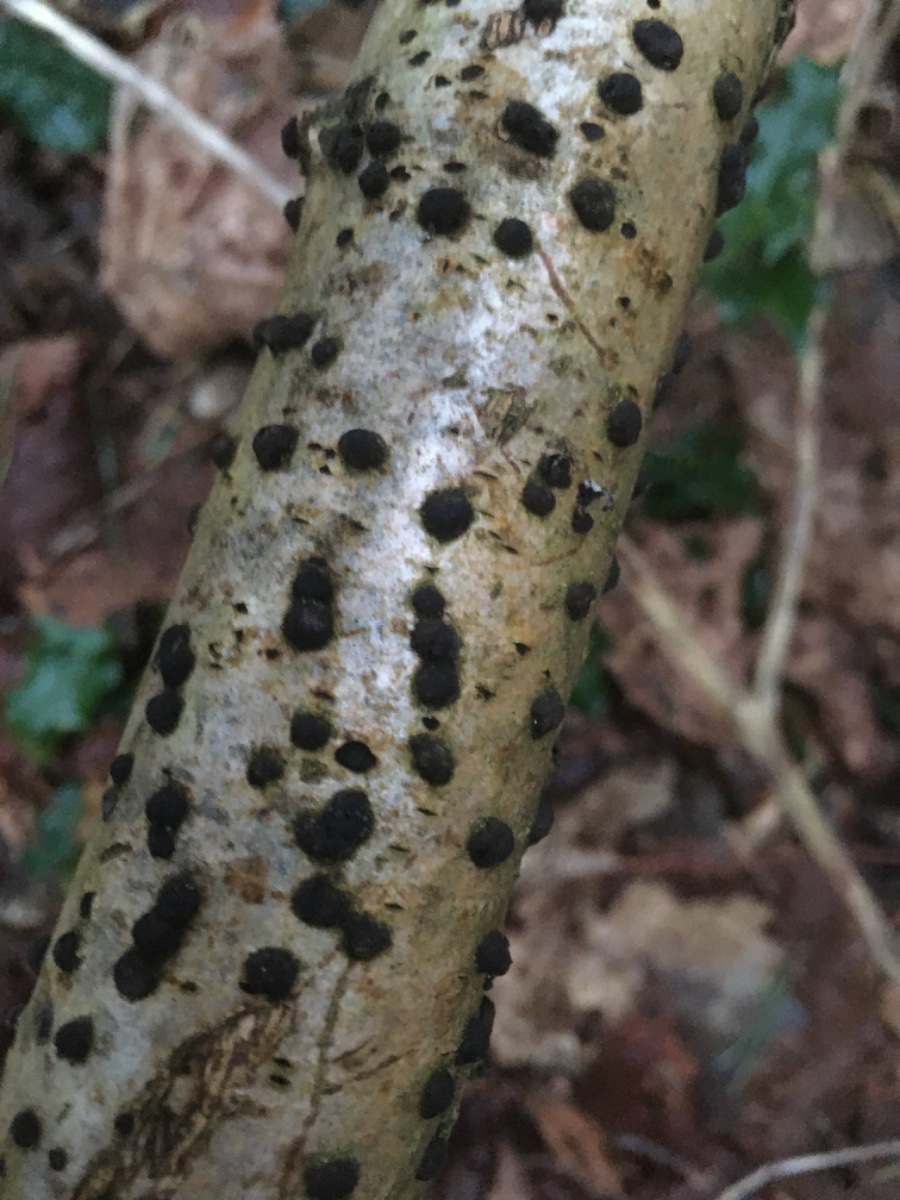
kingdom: Fungi
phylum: Ascomycota
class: Sordariomycetes
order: Xylariales
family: Hypoxylaceae
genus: Hypoxylon
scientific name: Hypoxylon fuscum
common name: kegleformet kulbær
